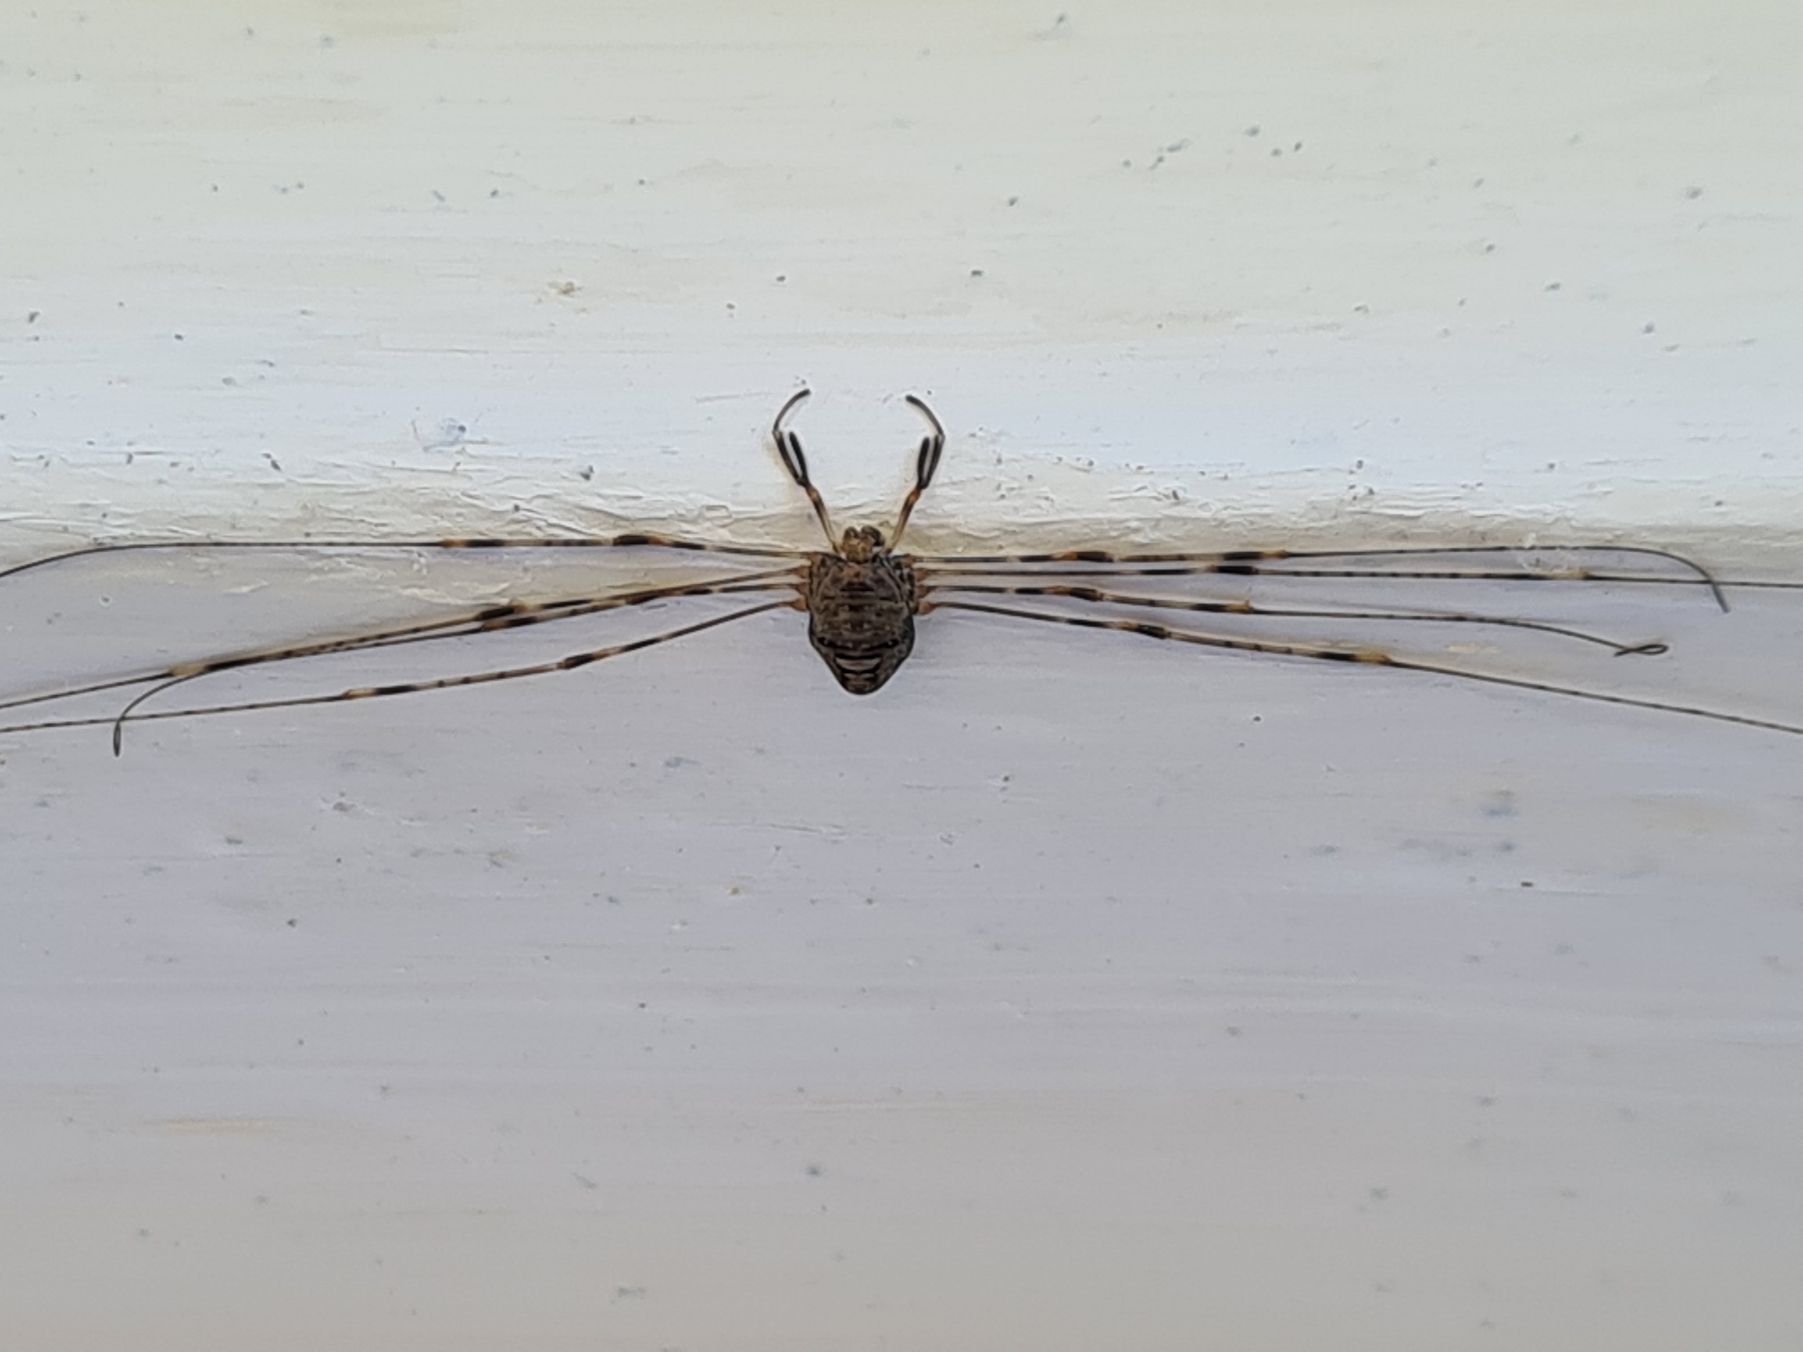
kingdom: Animalia
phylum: Arthropoda
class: Arachnida
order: Opiliones
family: Phalangiidae
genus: Dicranopalpus
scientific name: Dicranopalpus ramosus
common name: Gaffelmejer
